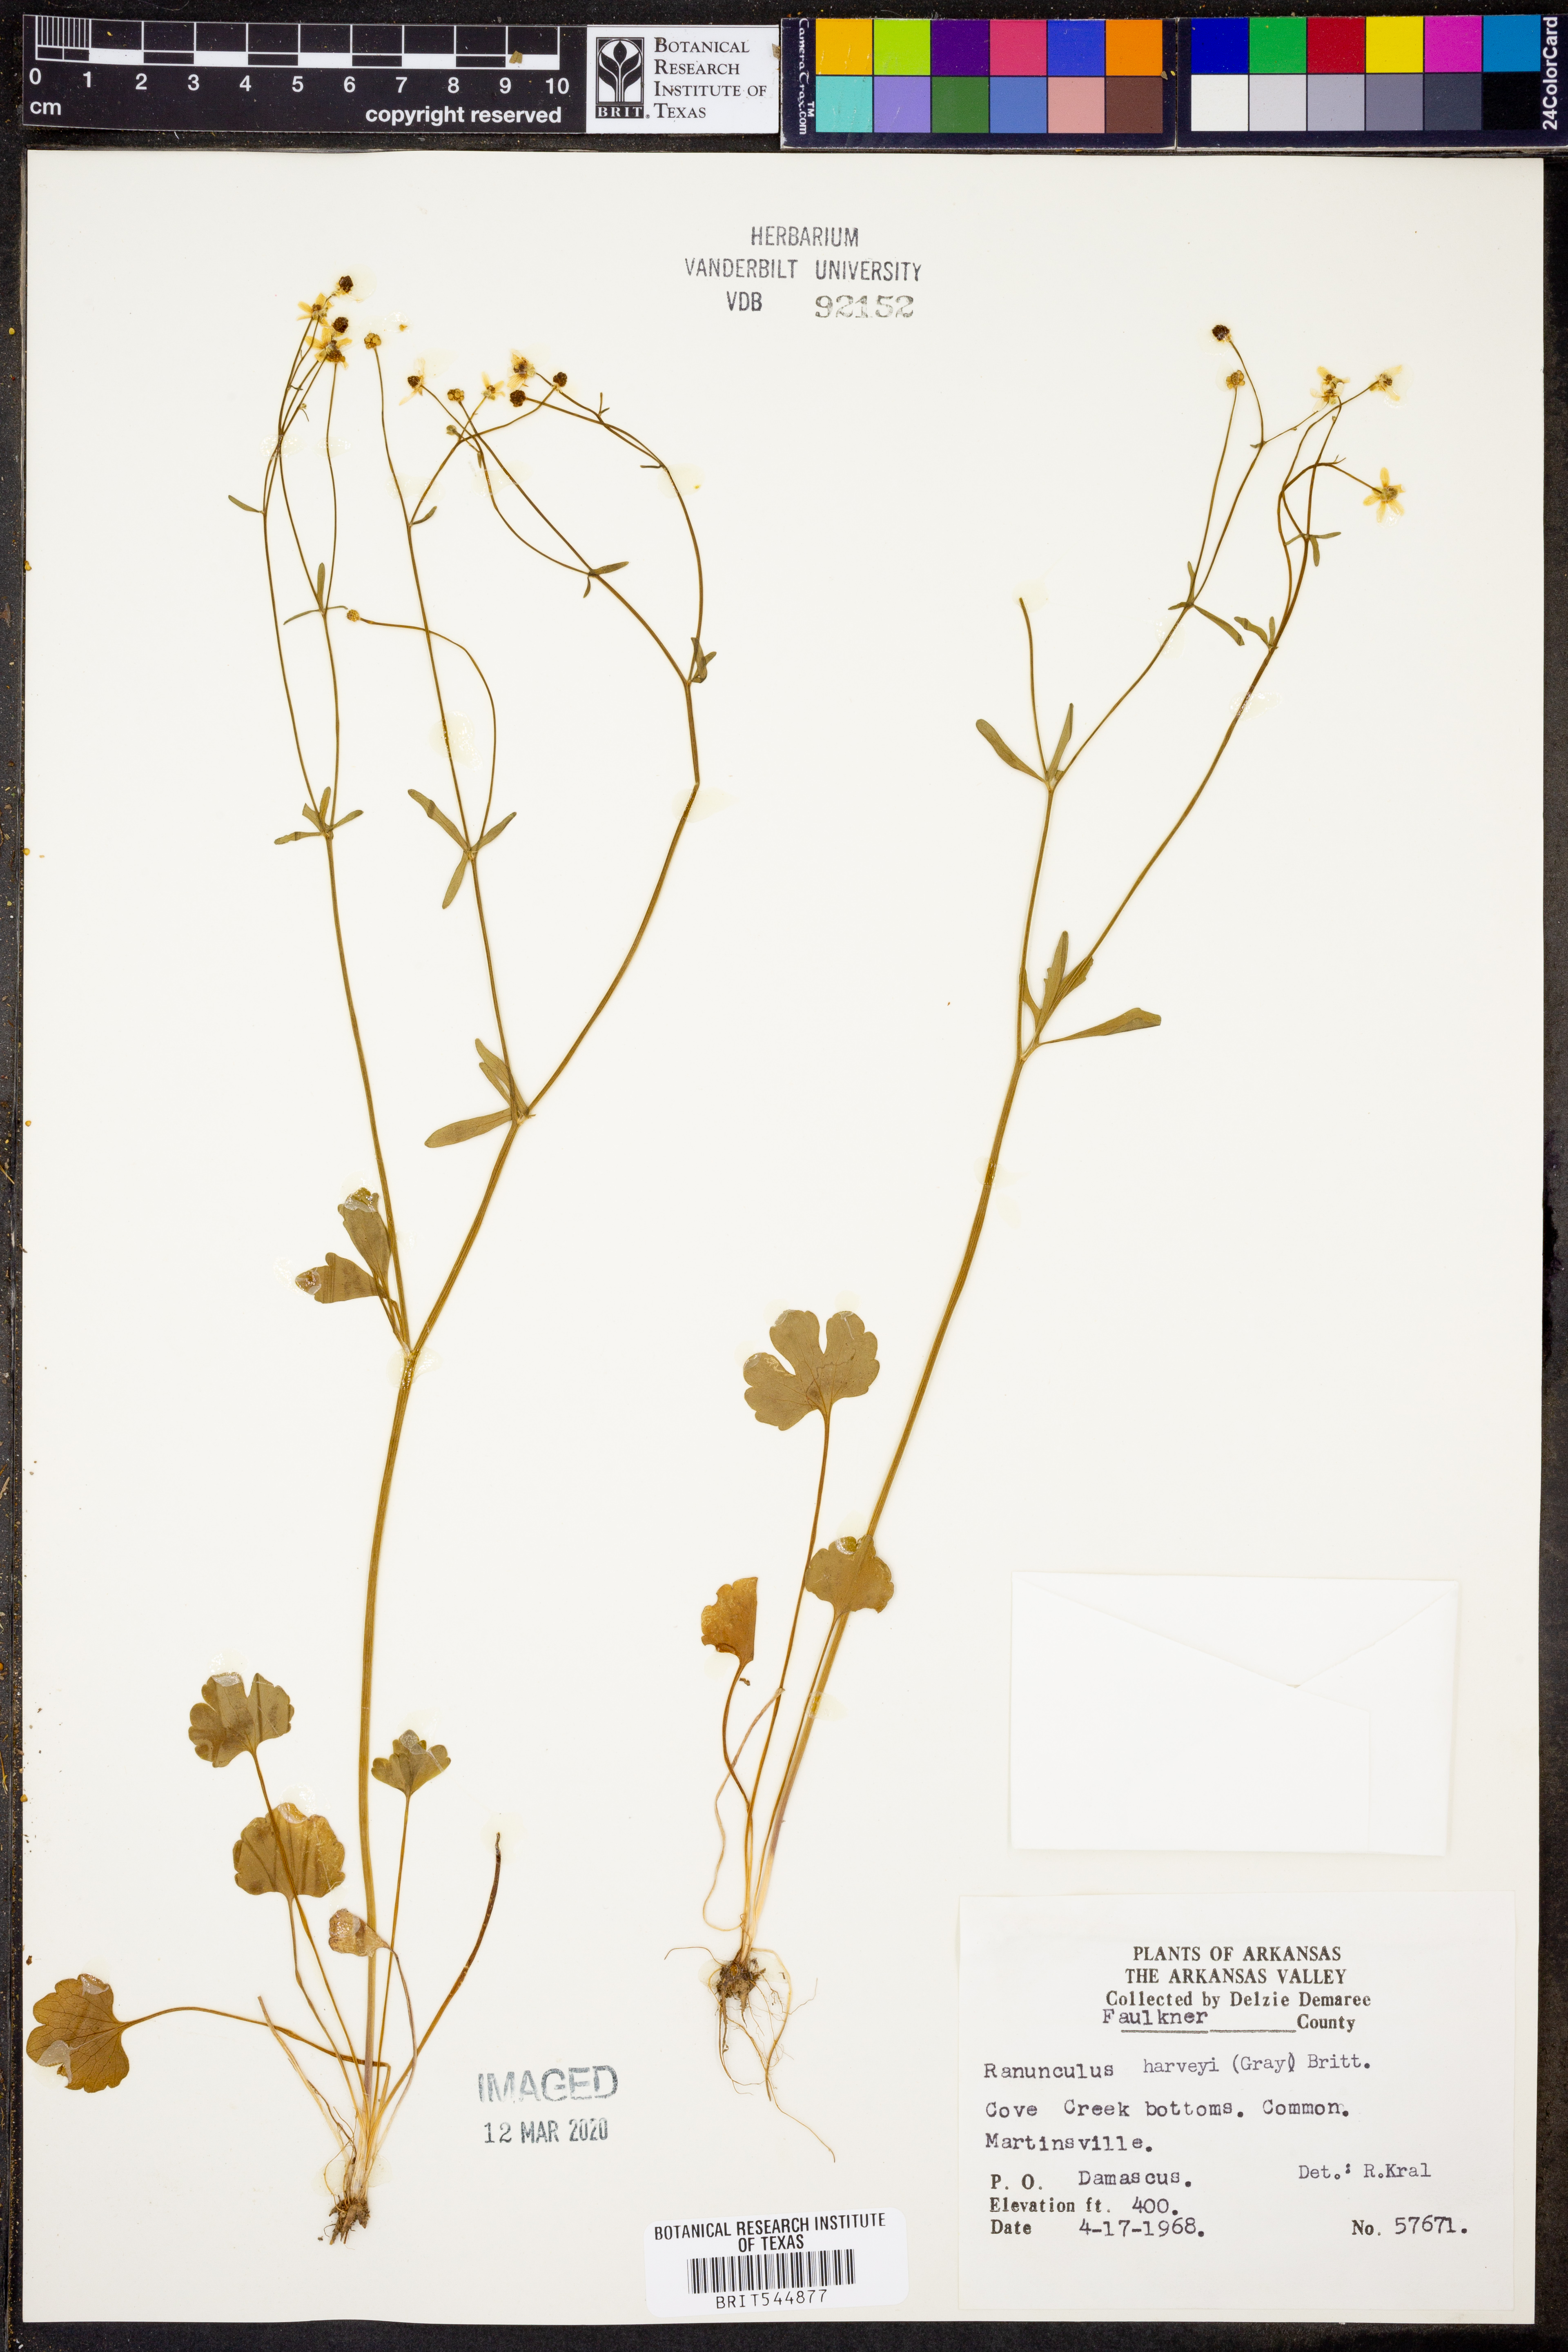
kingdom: Plantae
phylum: Tracheophyta
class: Magnoliopsida
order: Ranunculales
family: Ranunculaceae
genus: Ranunculus
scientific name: Ranunculus harveyi
